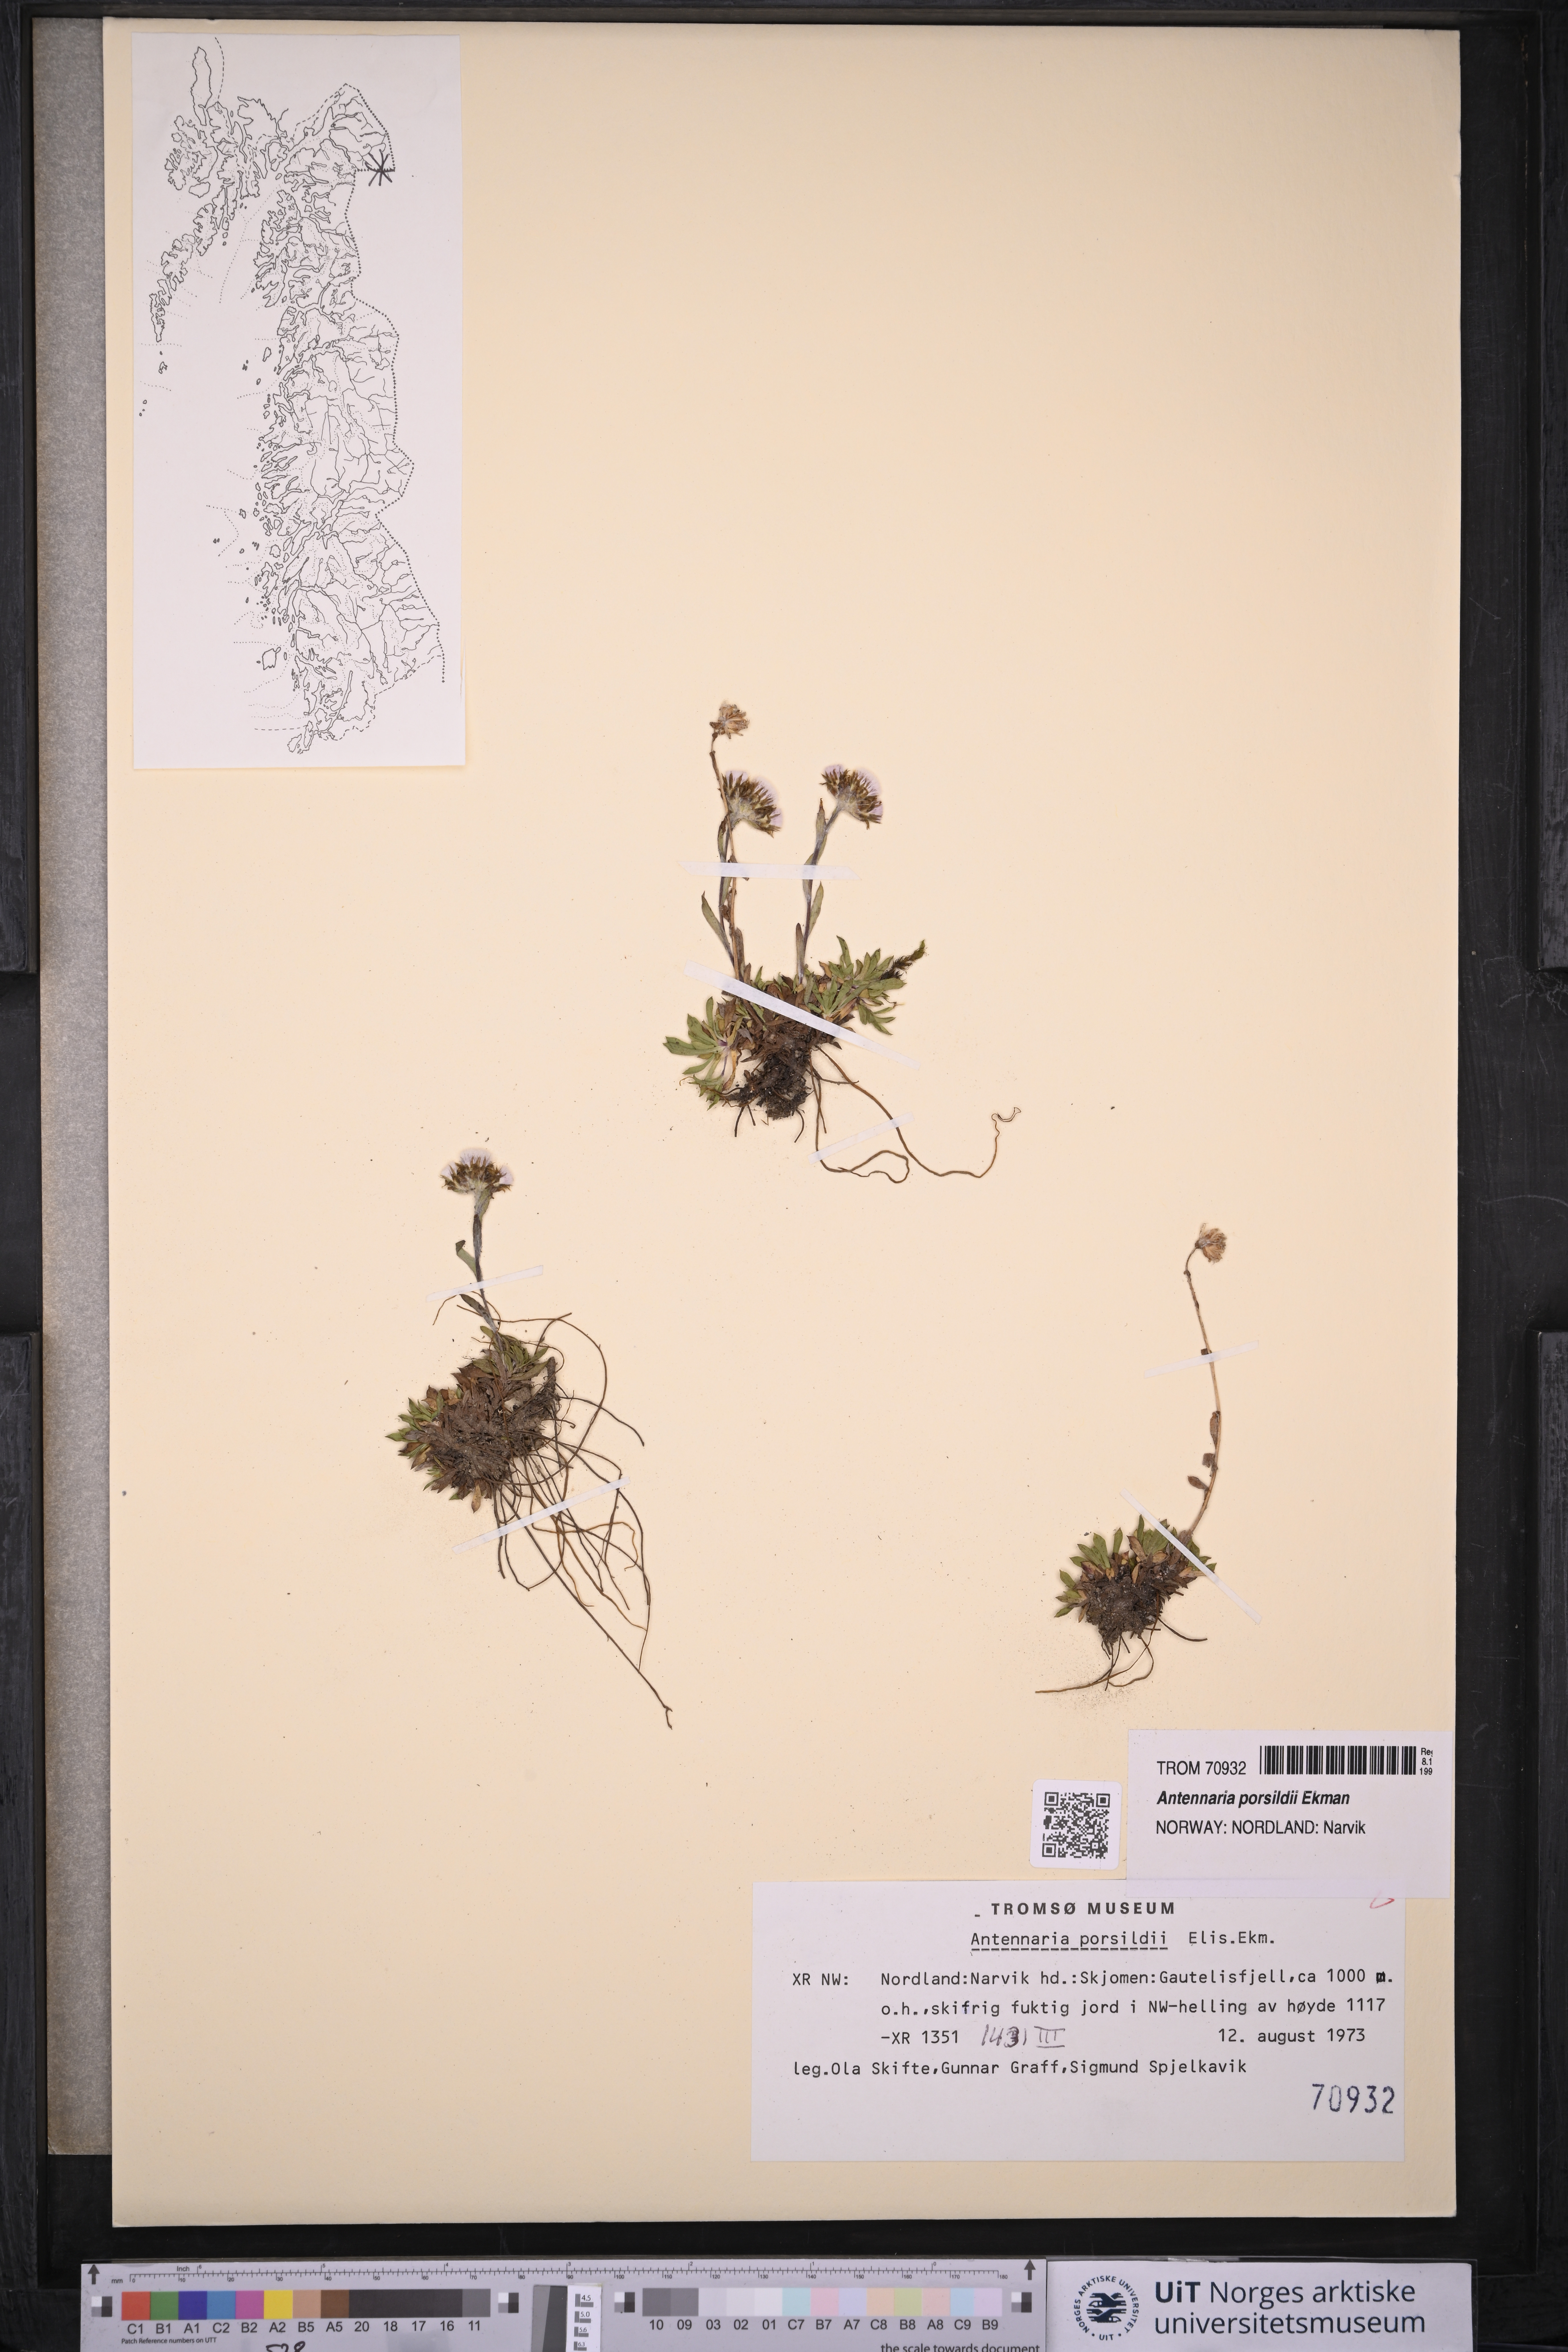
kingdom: Plantae
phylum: Tracheophyta
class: Magnoliopsida
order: Asterales
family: Asteraceae
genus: Antennaria
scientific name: Antennaria porsildii
